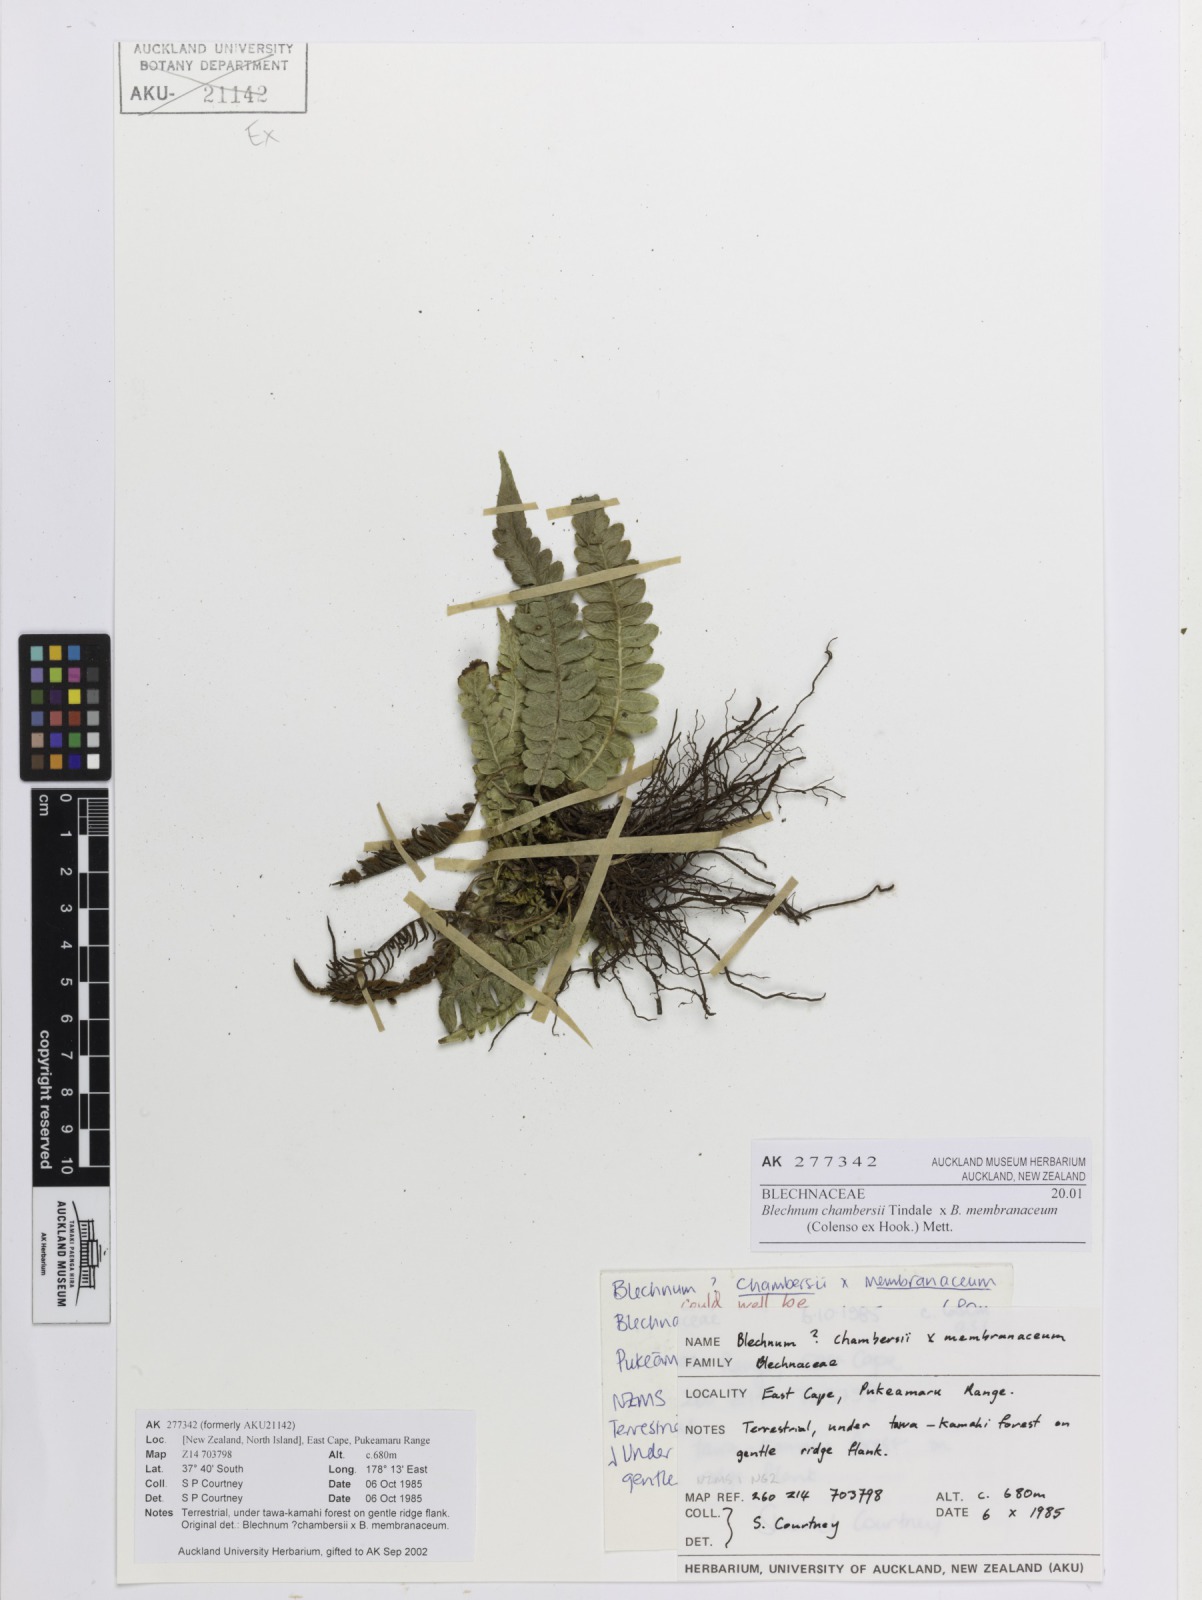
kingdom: Plantae
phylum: Tracheophyta
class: Polypodiopsida
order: Polypodiales
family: Blechnaceae
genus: Blechnum
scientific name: Blechnum
